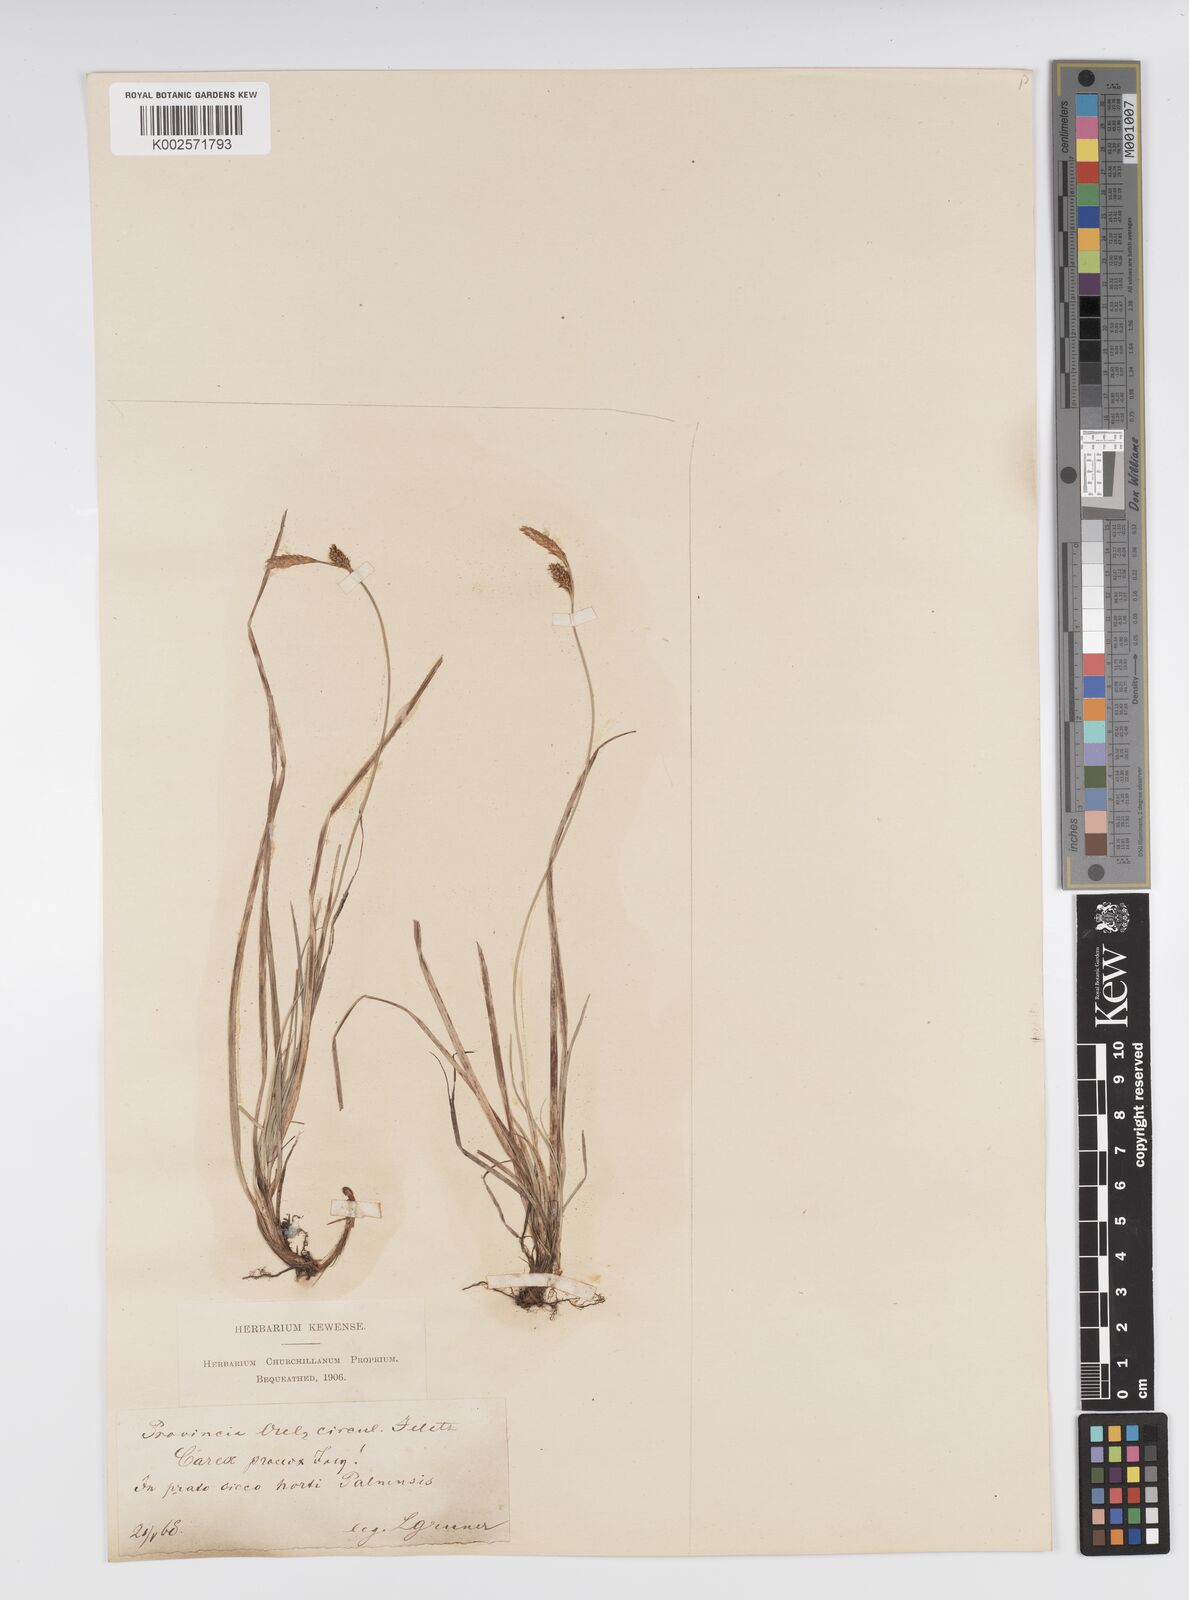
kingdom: Plantae
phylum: Tracheophyta
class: Liliopsida
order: Poales
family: Cyperaceae
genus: Carex
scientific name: Carex caryophyllea
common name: Spring sedge
